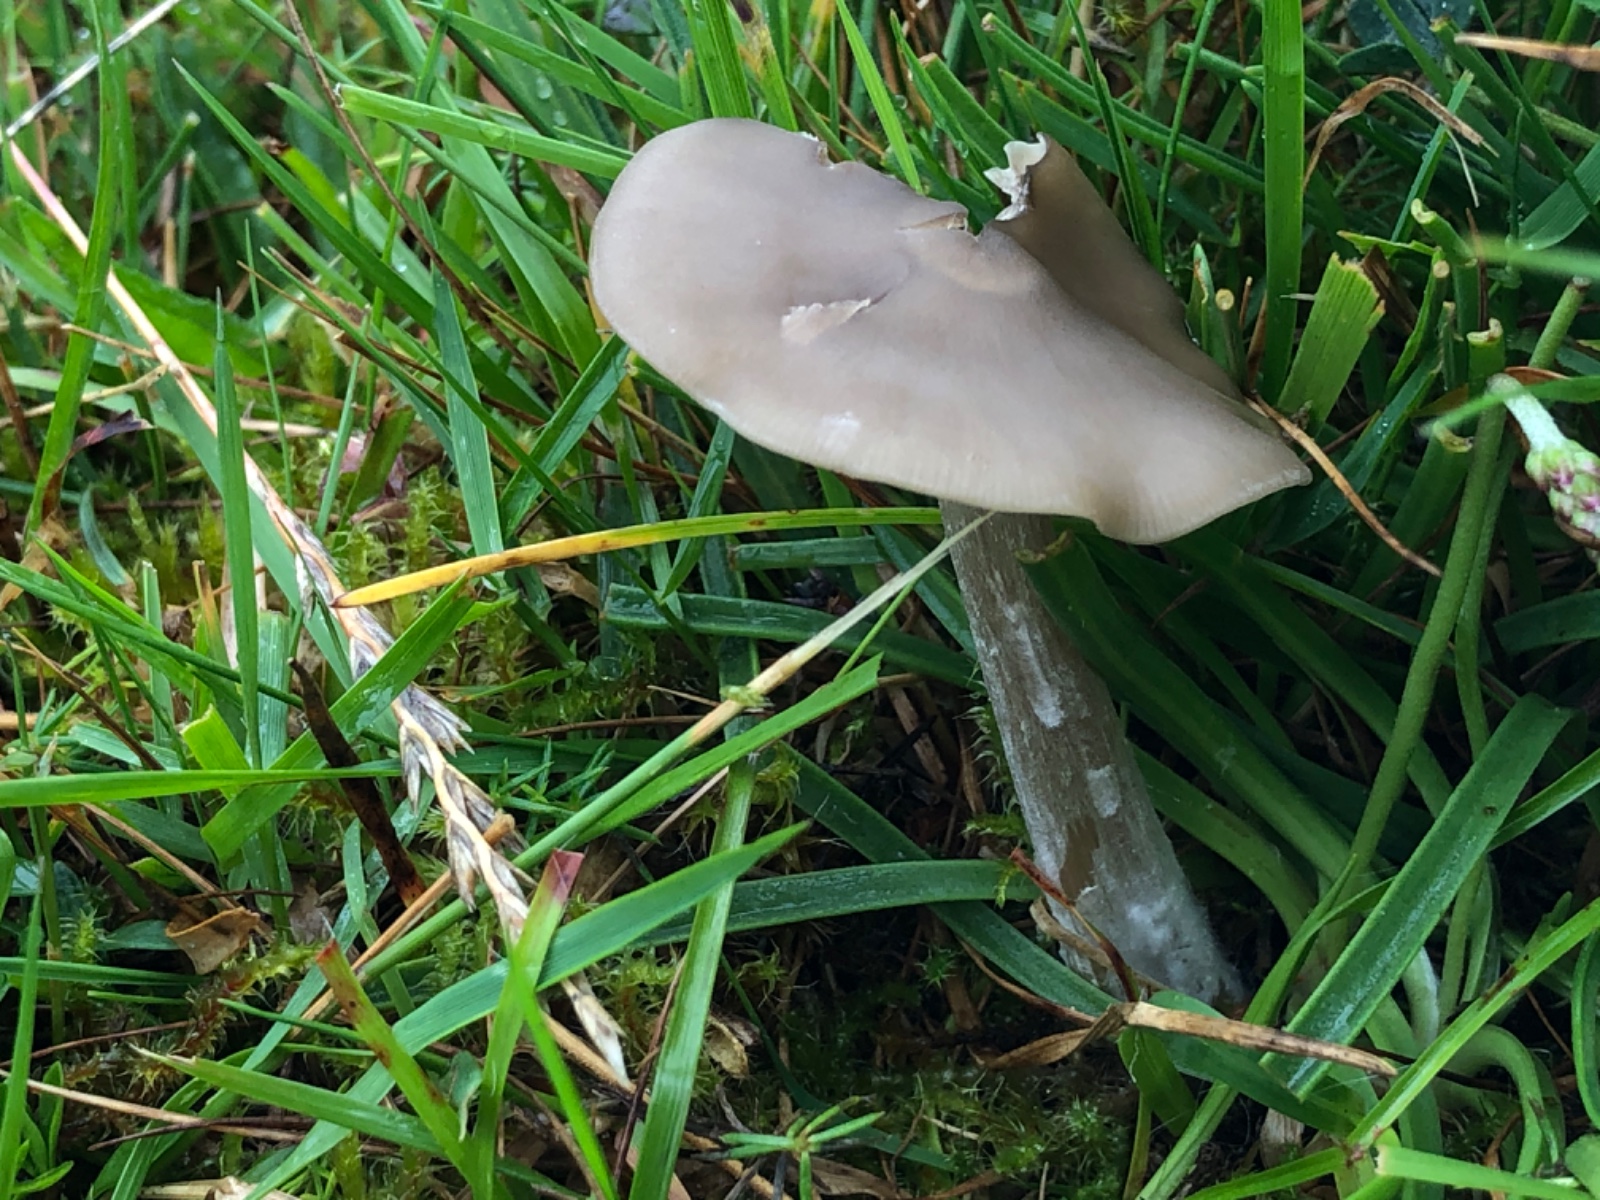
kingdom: Fungi
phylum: Basidiomycota
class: Agaricomycetes
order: Agaricales
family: Entolomataceae
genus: Entoloma
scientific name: Entoloma
